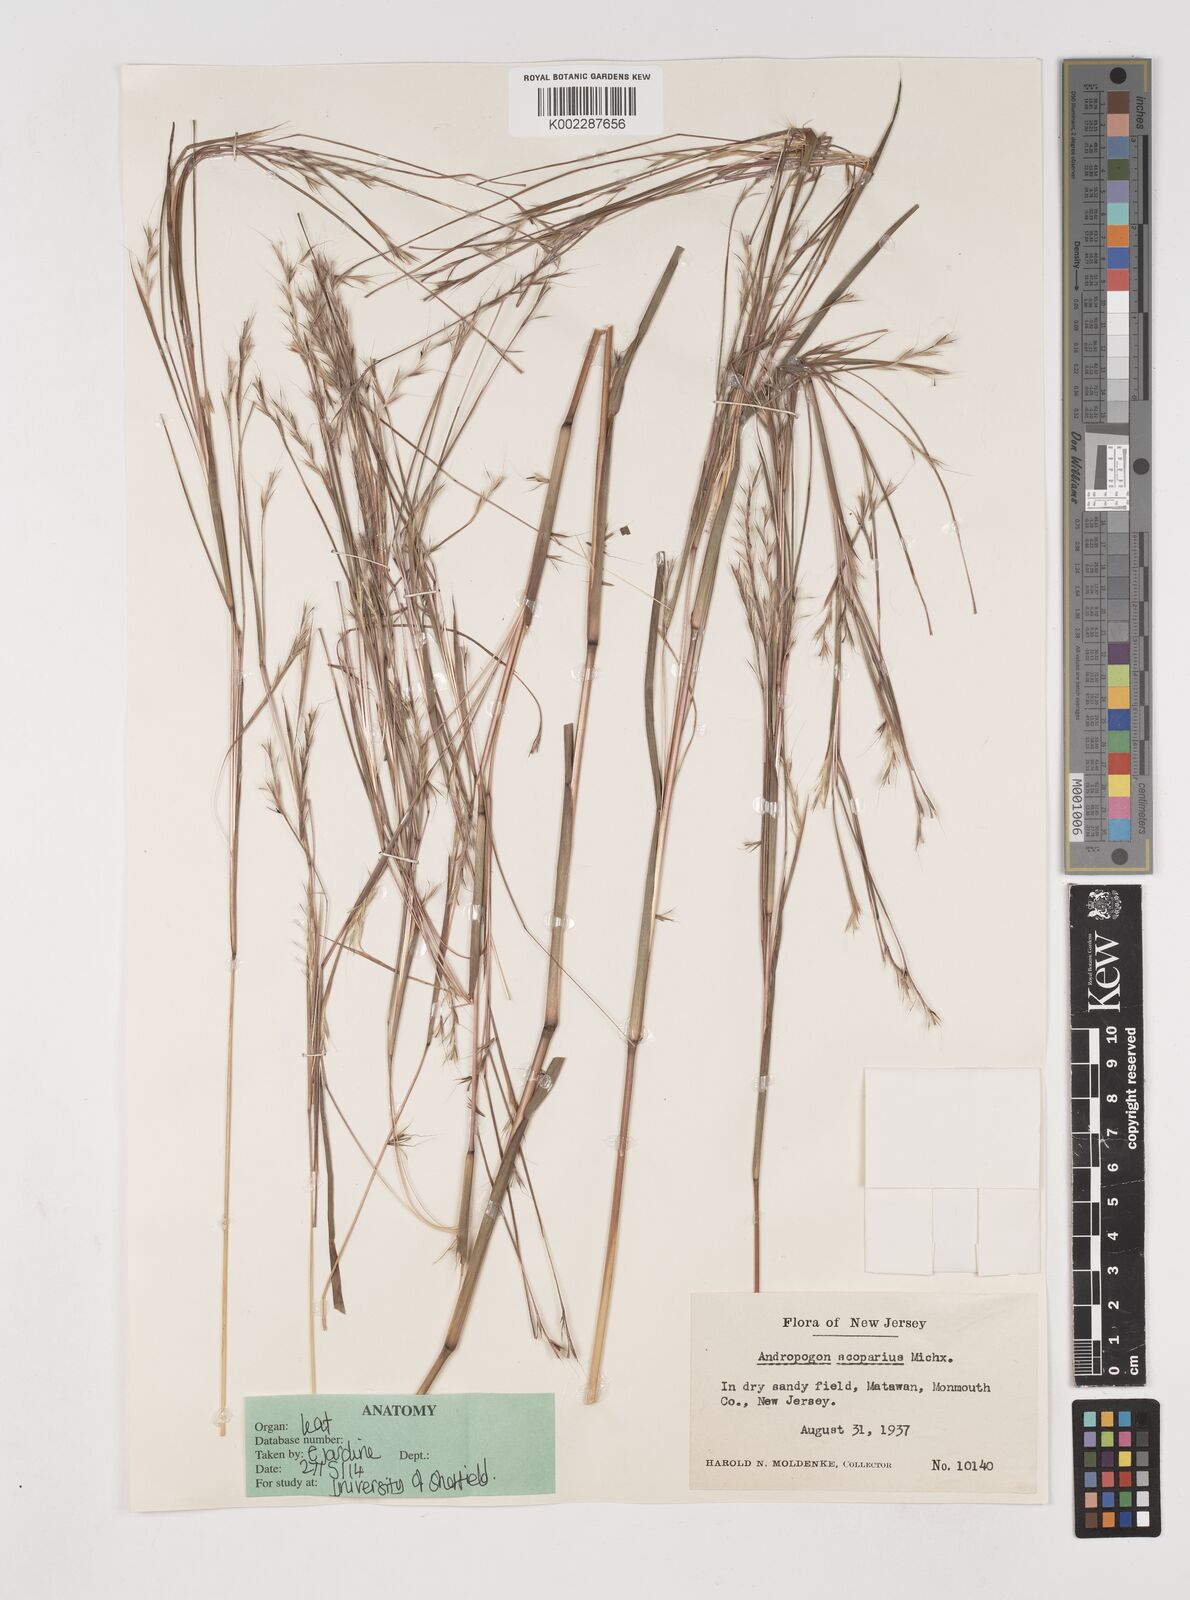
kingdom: Plantae
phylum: Tracheophyta
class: Liliopsida
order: Poales
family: Poaceae
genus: Schizachyrium
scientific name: Schizachyrium scoparium
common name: Little bluestem
